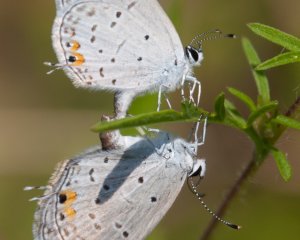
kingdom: Animalia
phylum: Arthropoda
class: Insecta
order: Lepidoptera
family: Lycaenidae
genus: Elkalyce
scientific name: Elkalyce comyntas
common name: Eastern Tailed-Blue
